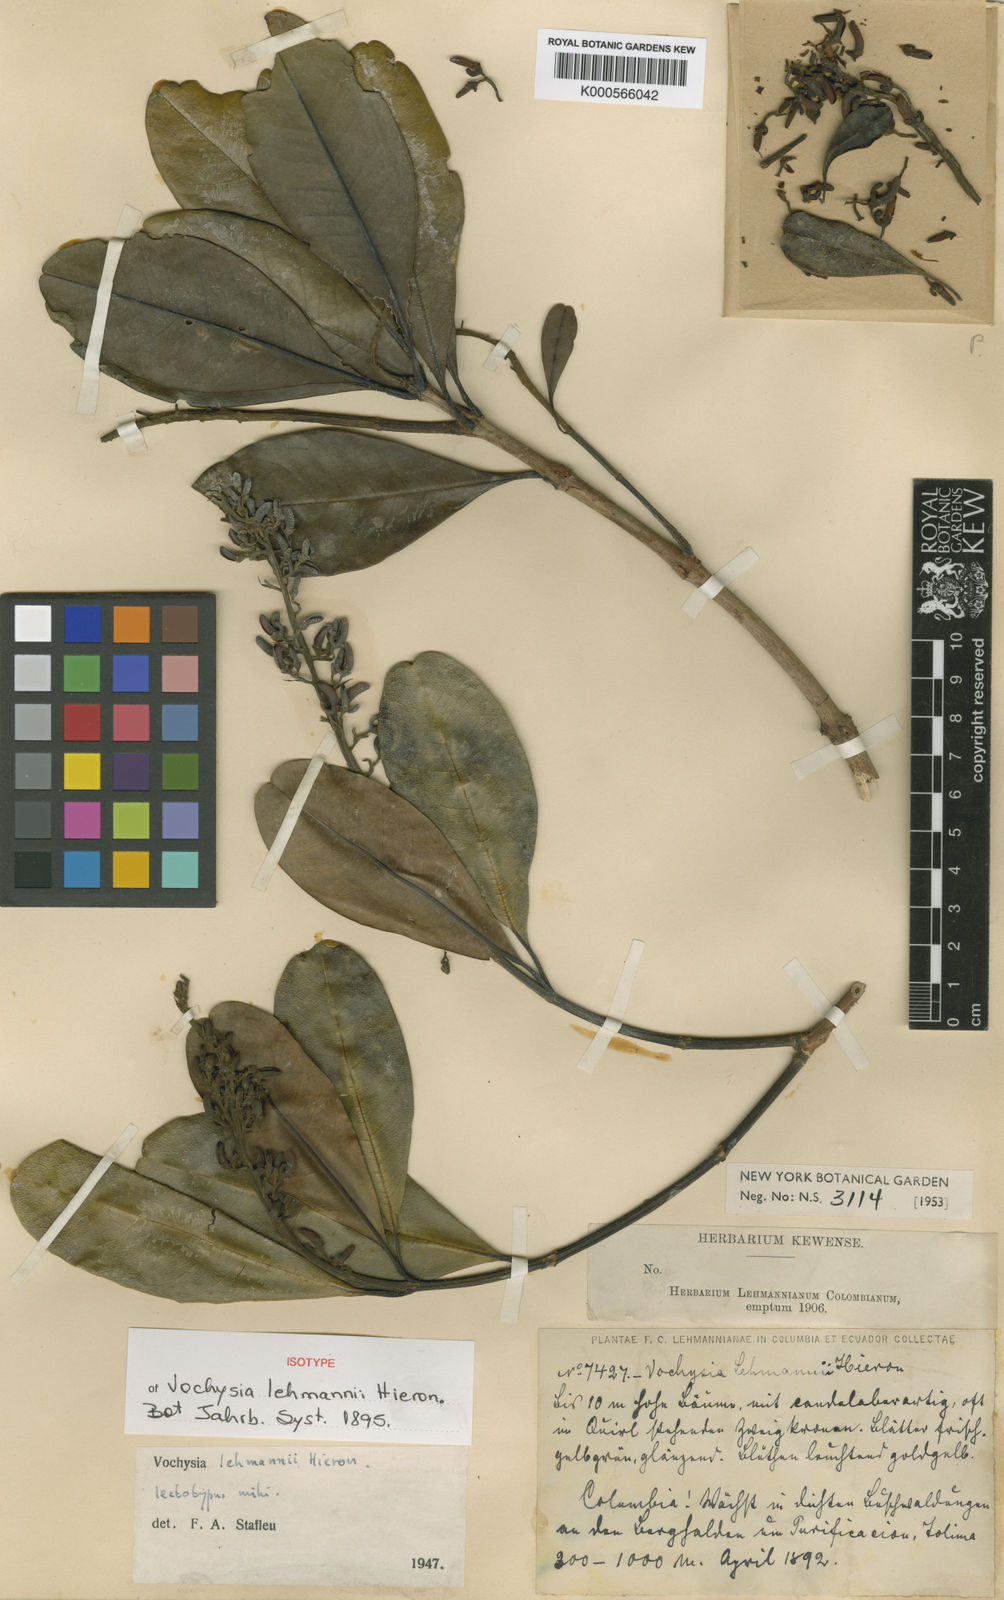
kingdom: Plantae
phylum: Tracheophyta
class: Magnoliopsida
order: Myrtales
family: Vochysiaceae
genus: Vochysia
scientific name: Vochysia lehmannii
